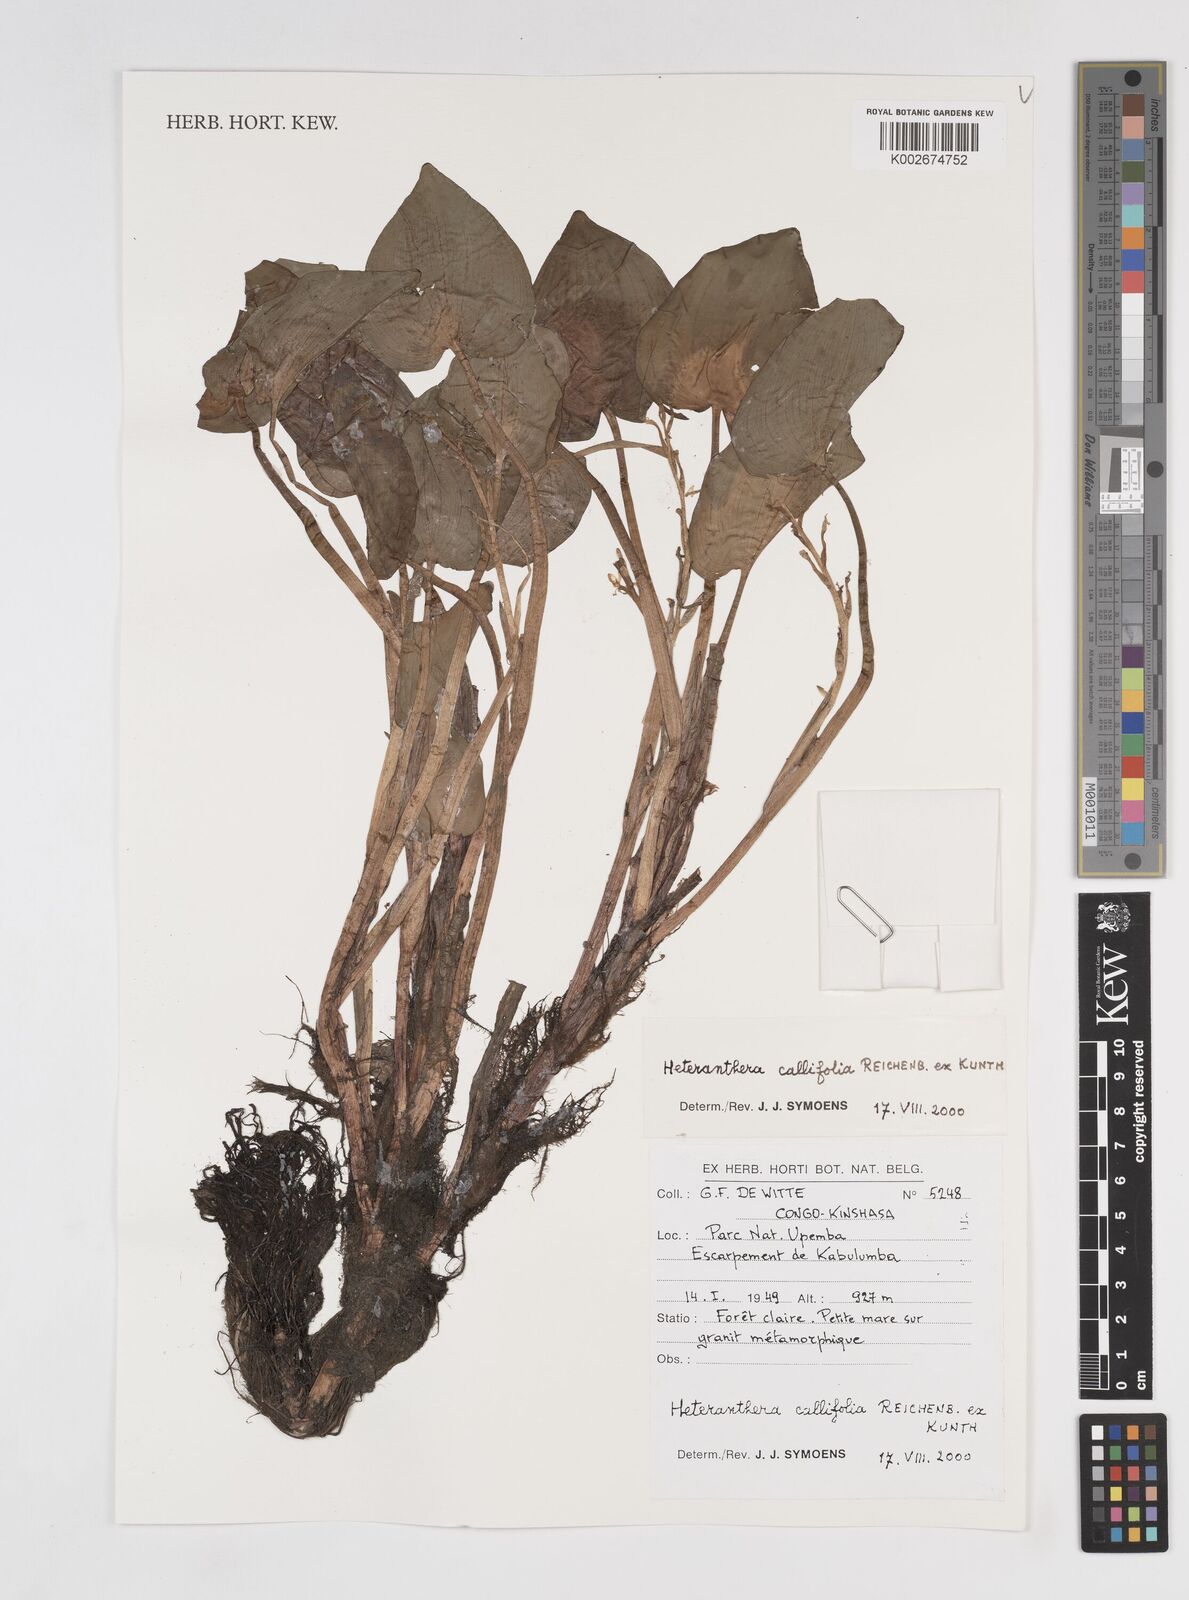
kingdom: Plantae
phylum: Tracheophyta
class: Liliopsida
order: Commelinales
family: Pontederiaceae
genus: Heteranthera
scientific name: Heteranthera callifolia
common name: Mud plantain
